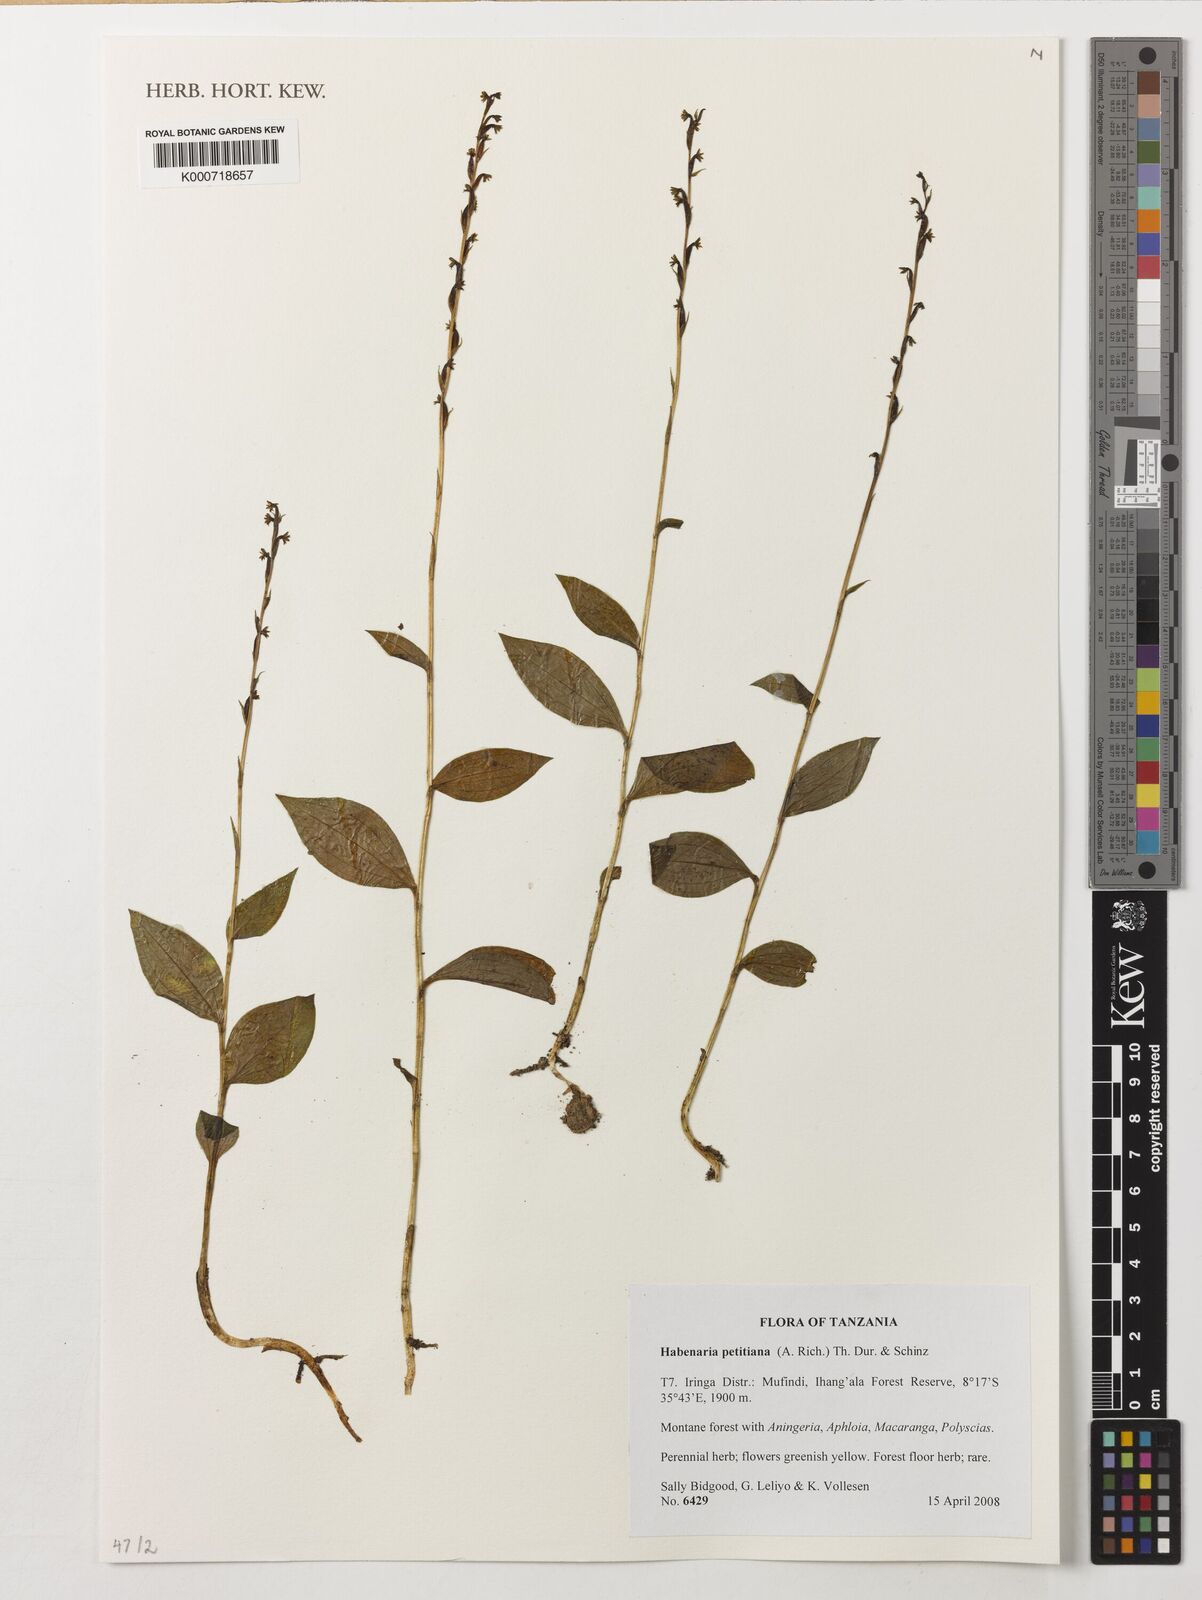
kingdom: Plantae
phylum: Tracheophyta
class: Liliopsida
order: Asparagales
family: Orchidaceae
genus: Habenaria
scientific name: Habenaria petitiana
